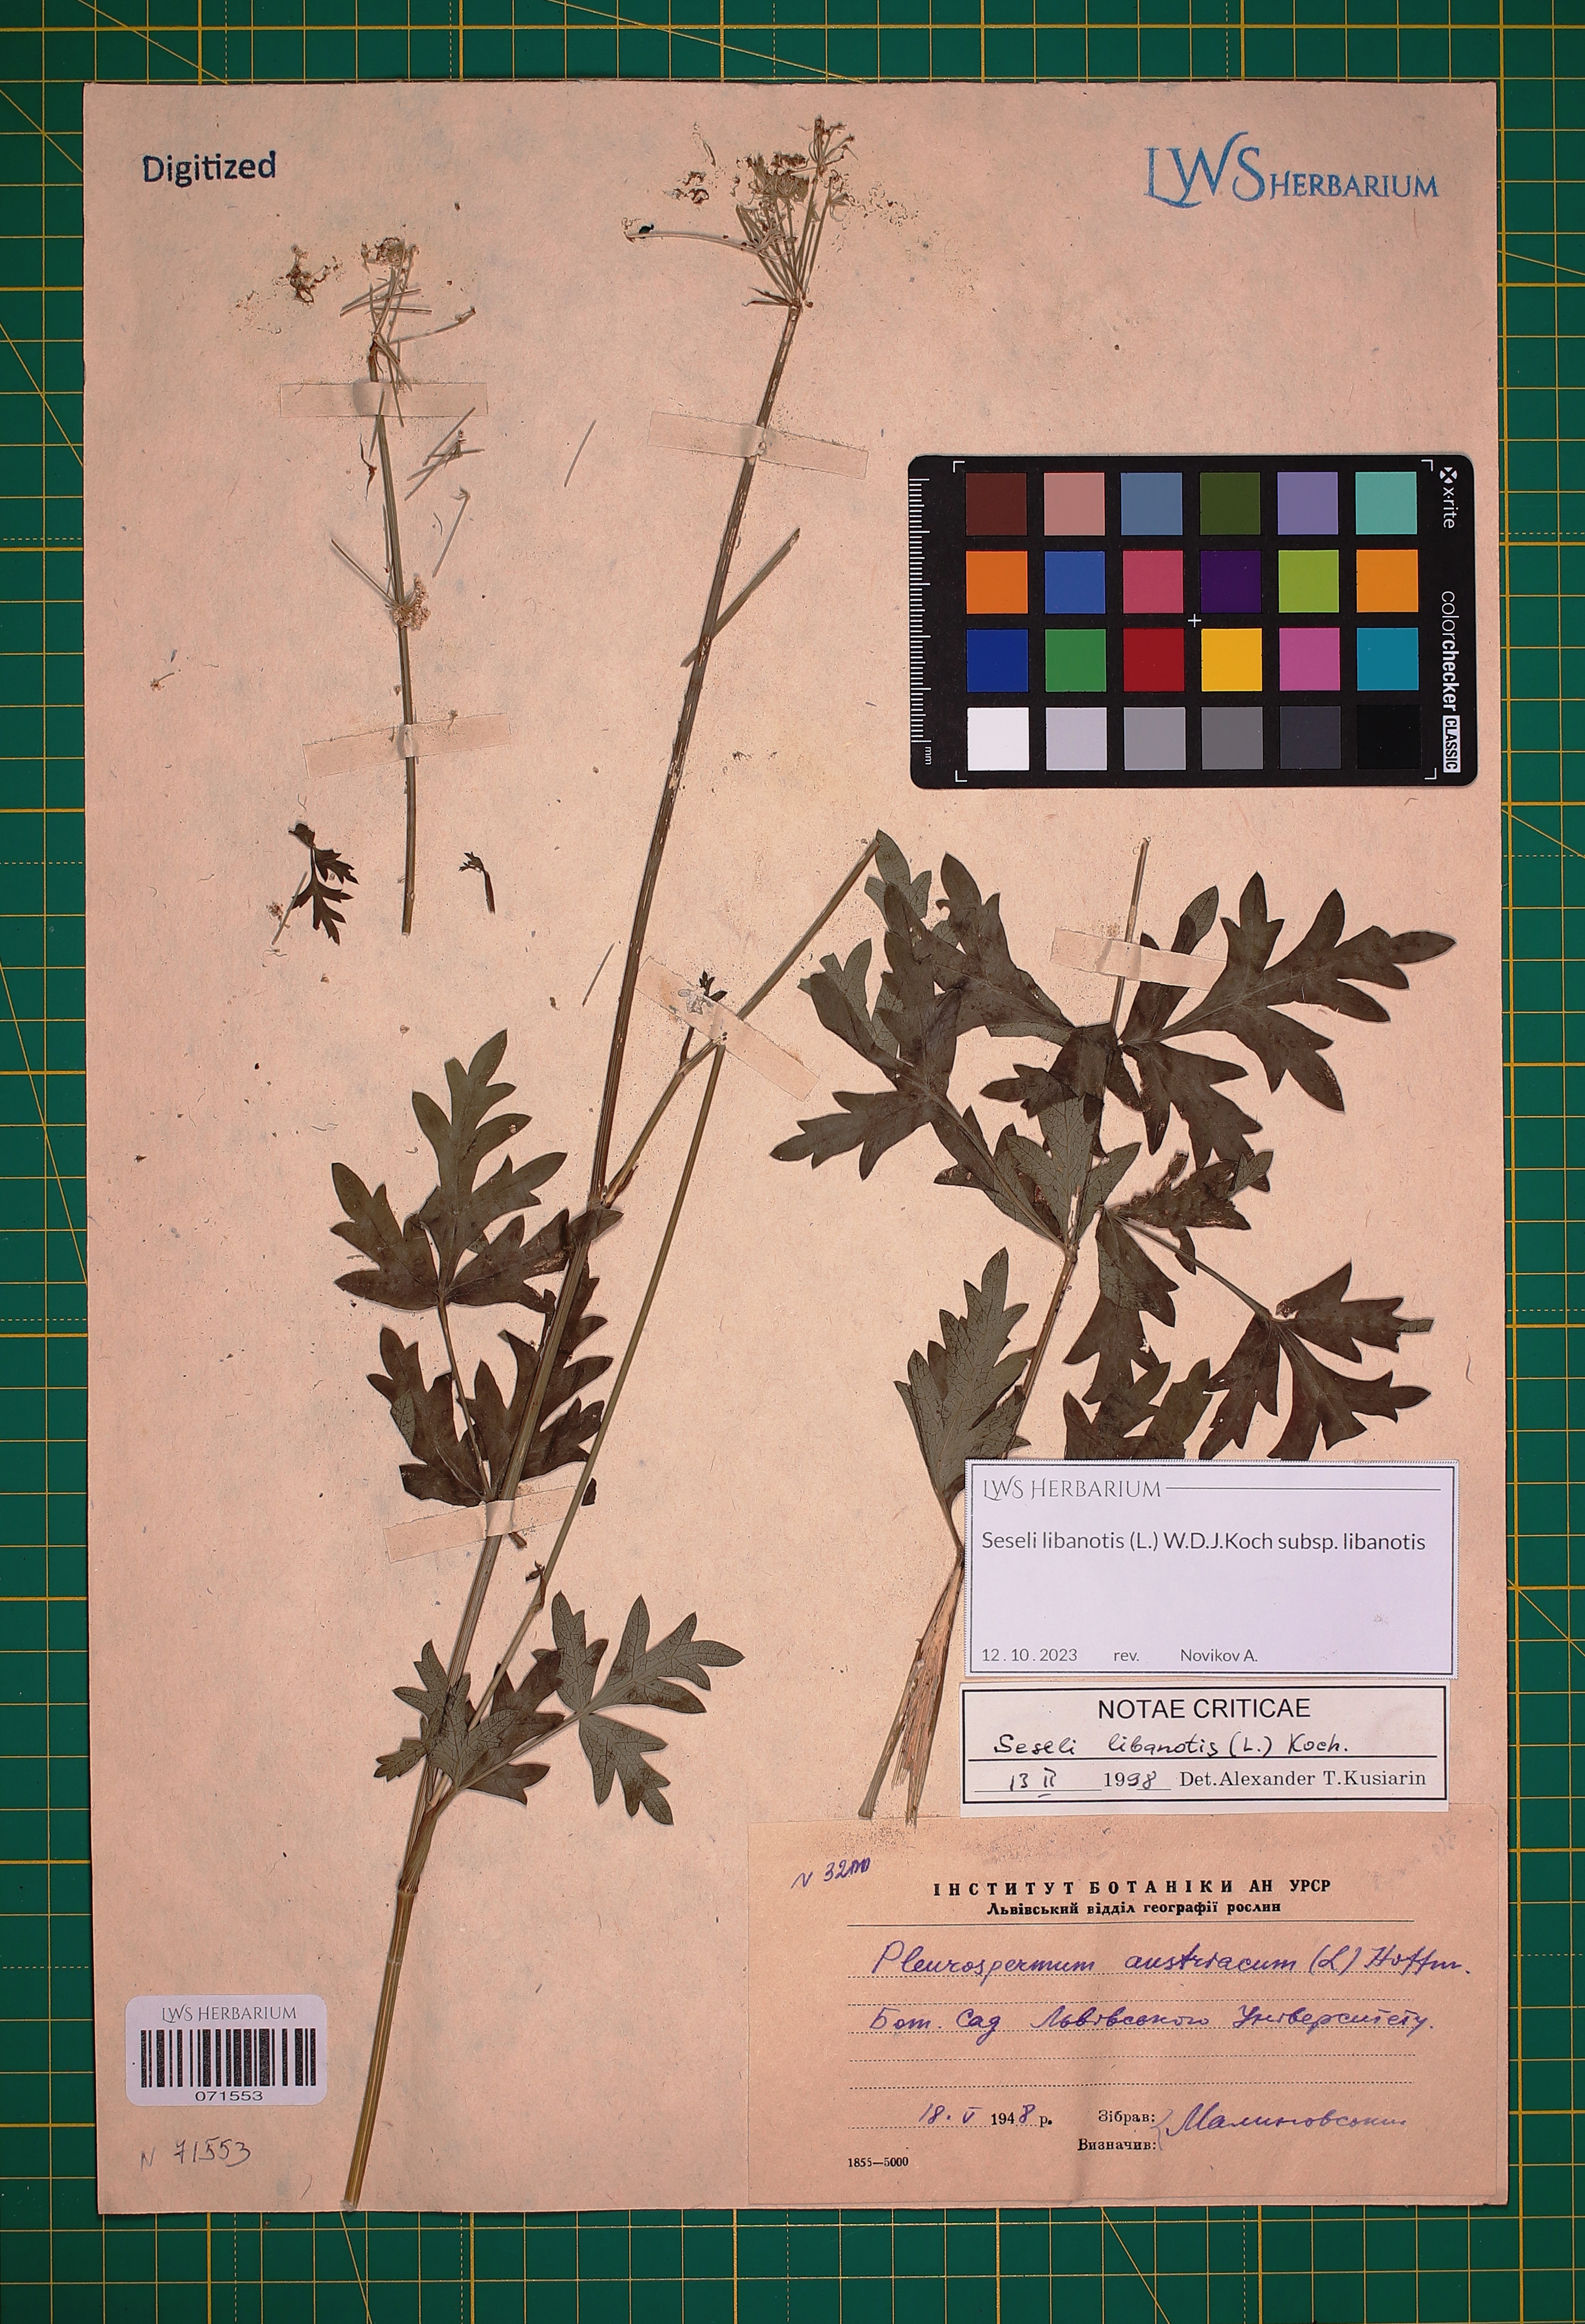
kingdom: Plantae
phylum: Tracheophyta
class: Magnoliopsida
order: Apiales
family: Apiaceae
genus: Seseli
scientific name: Seseli libanotis
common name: Mooncarrot
